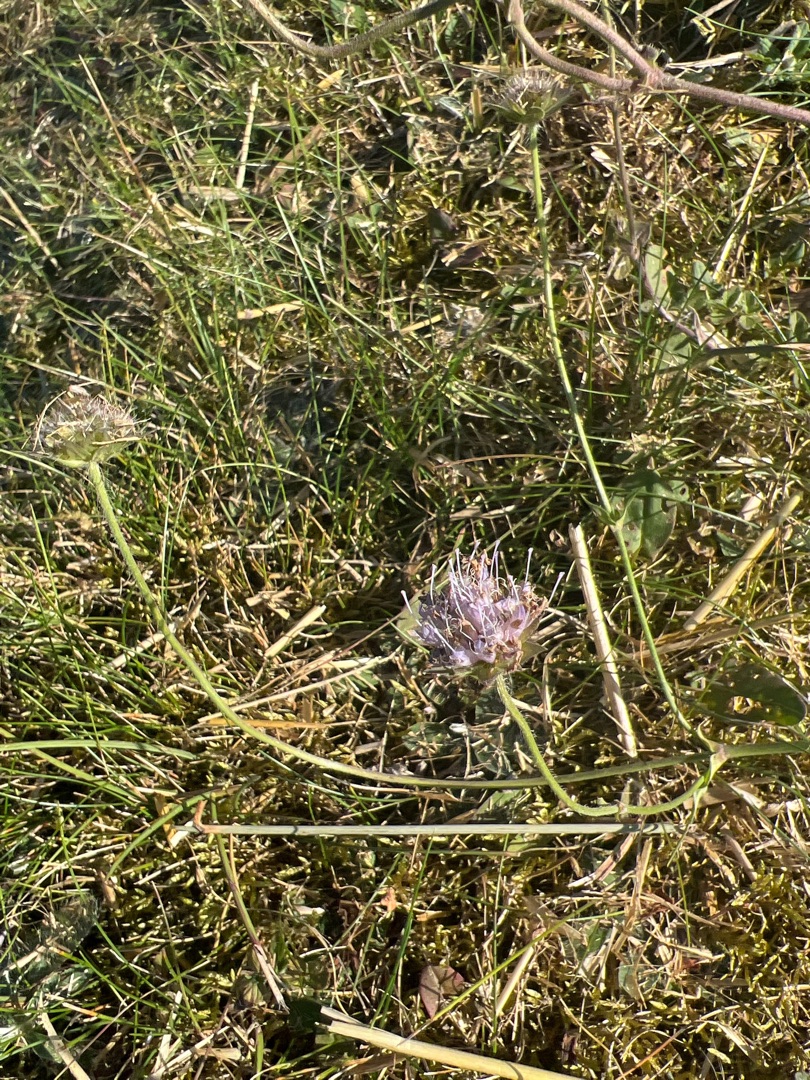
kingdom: Plantae
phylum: Tracheophyta
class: Magnoliopsida
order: Dipsacales
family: Caprifoliaceae
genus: Knautia
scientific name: Knautia arvensis
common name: Blåhat
